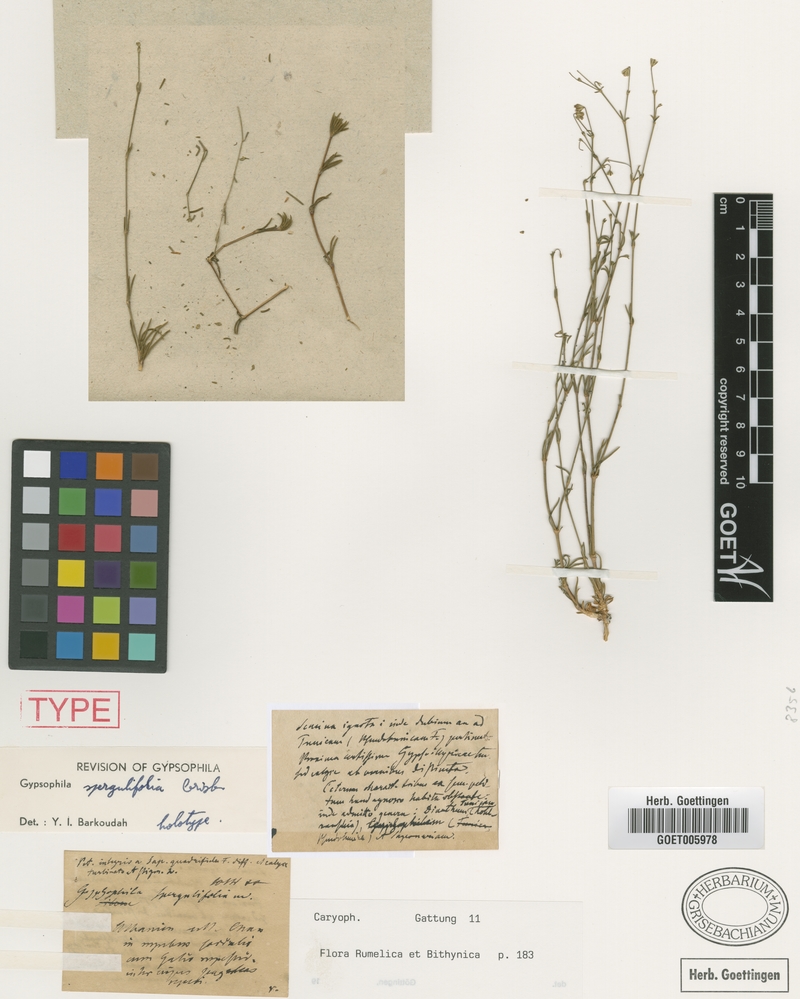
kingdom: Plantae
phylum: Tracheophyta
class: Magnoliopsida
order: Caryophyllales
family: Caryophyllaceae
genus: Balkana
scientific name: Balkana spergulifolia
